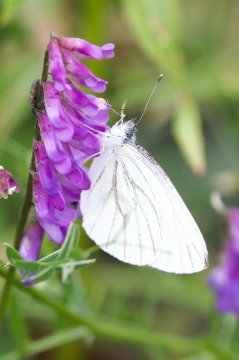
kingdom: Animalia
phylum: Arthropoda
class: Insecta
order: Lepidoptera
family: Pieridae
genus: Pieris
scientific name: Pieris oleracea
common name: Mustard White
